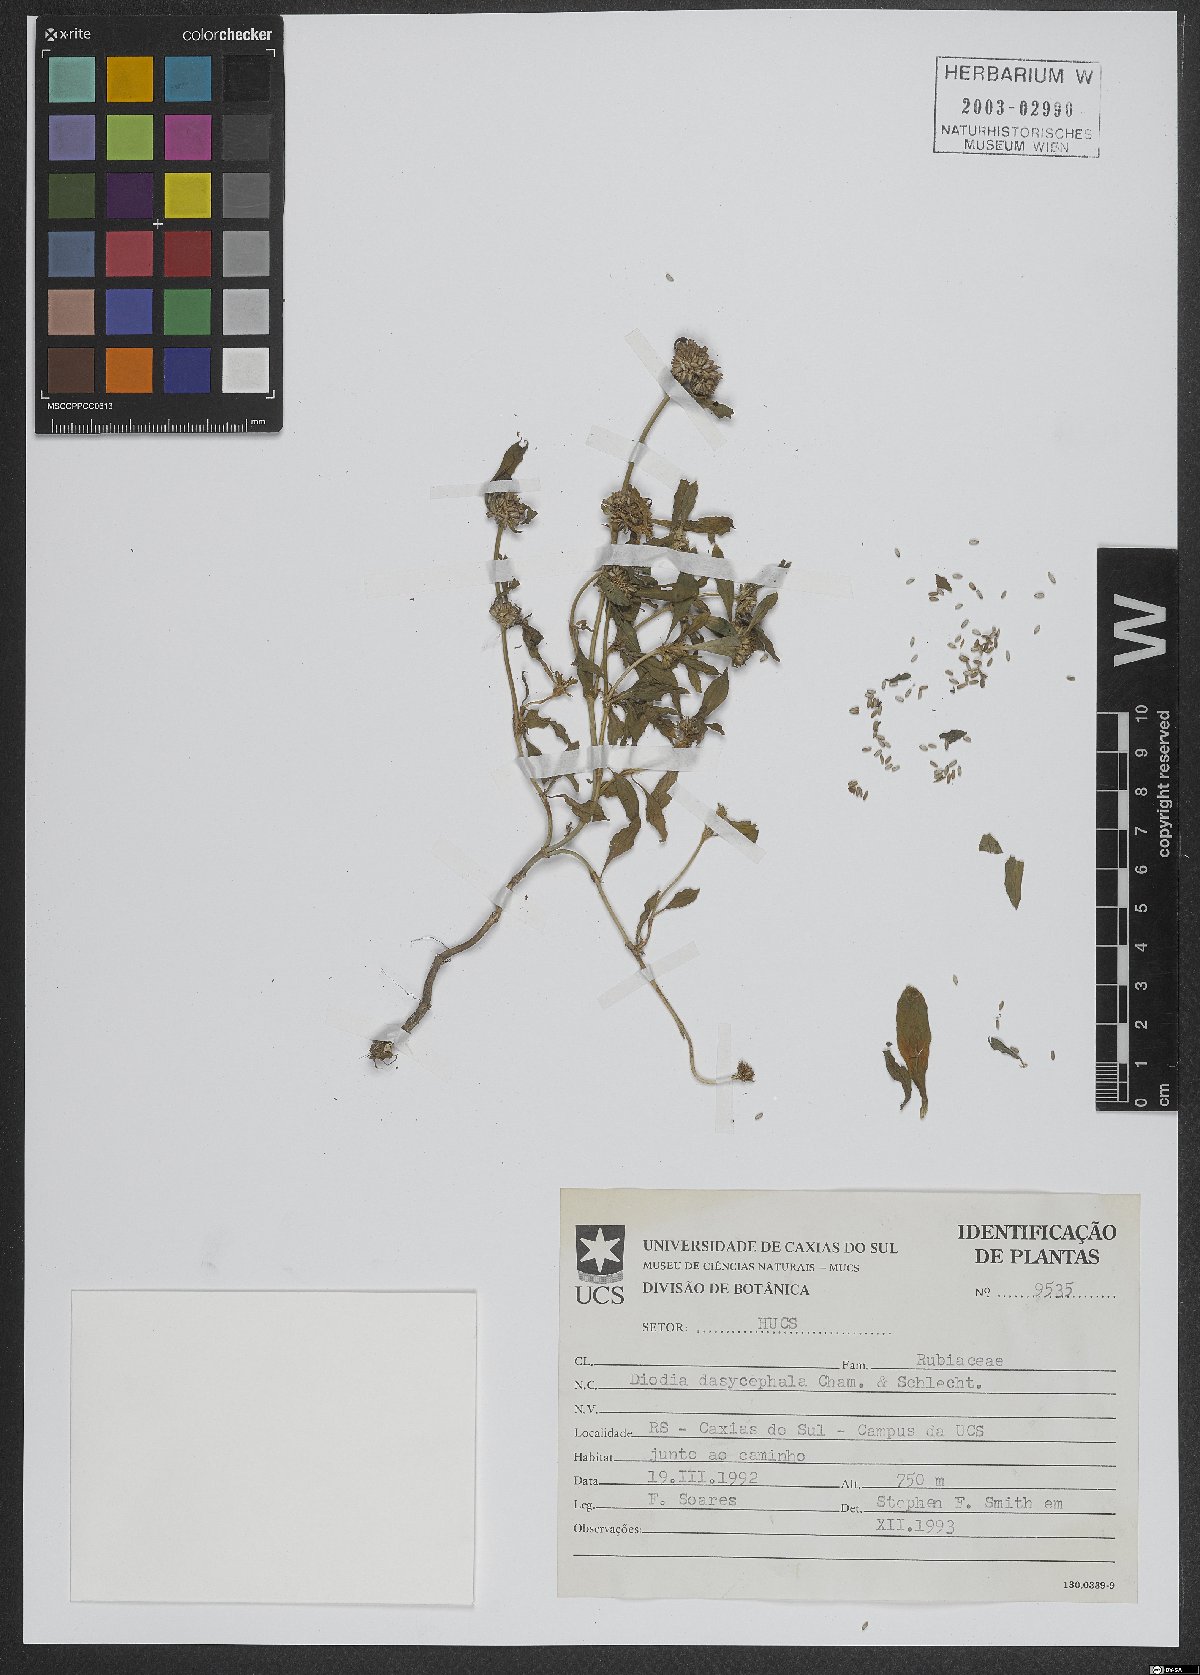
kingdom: Plantae
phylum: Tracheophyta
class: Magnoliopsida
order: Gentianales
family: Rubiaceae
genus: Spermacoce
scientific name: Spermacoce dasycephala
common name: False buttonweed
